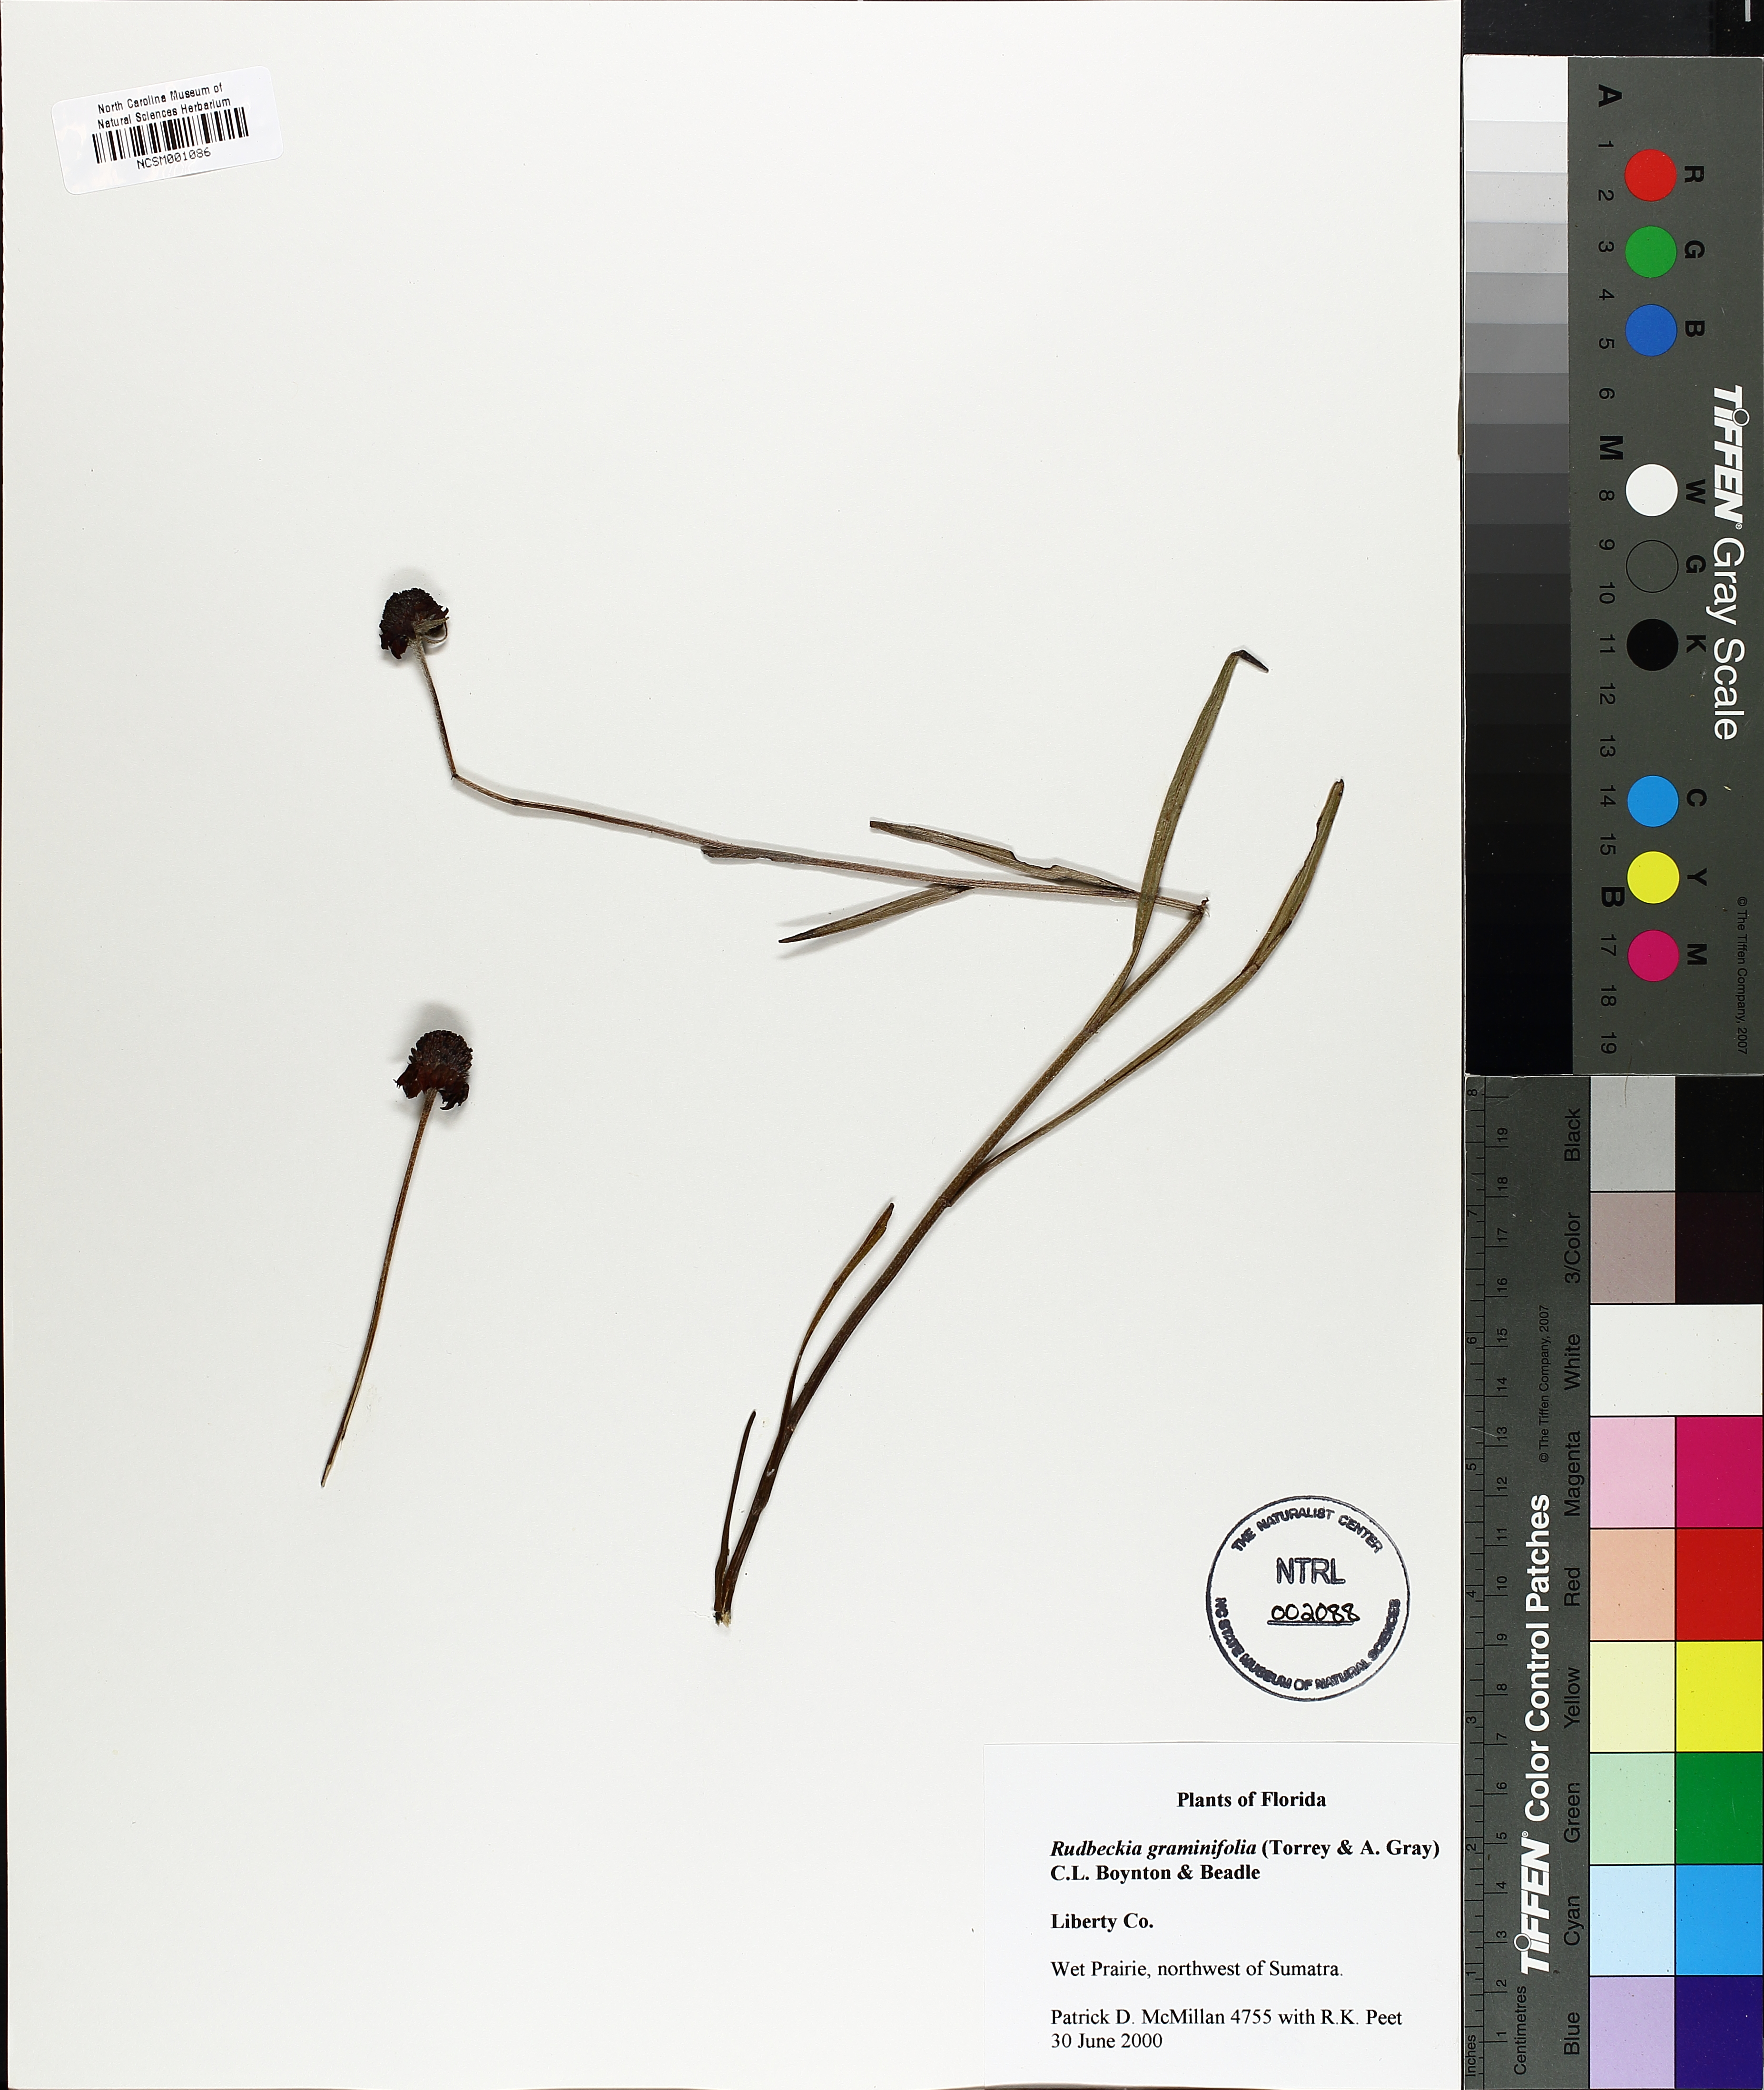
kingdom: Plantae
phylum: Tracheophyta
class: Magnoliopsida
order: Asterales
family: Asteraceae
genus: Rudbeckia
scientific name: Rudbeckia graminifolia
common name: Grass-leaf coneflower
